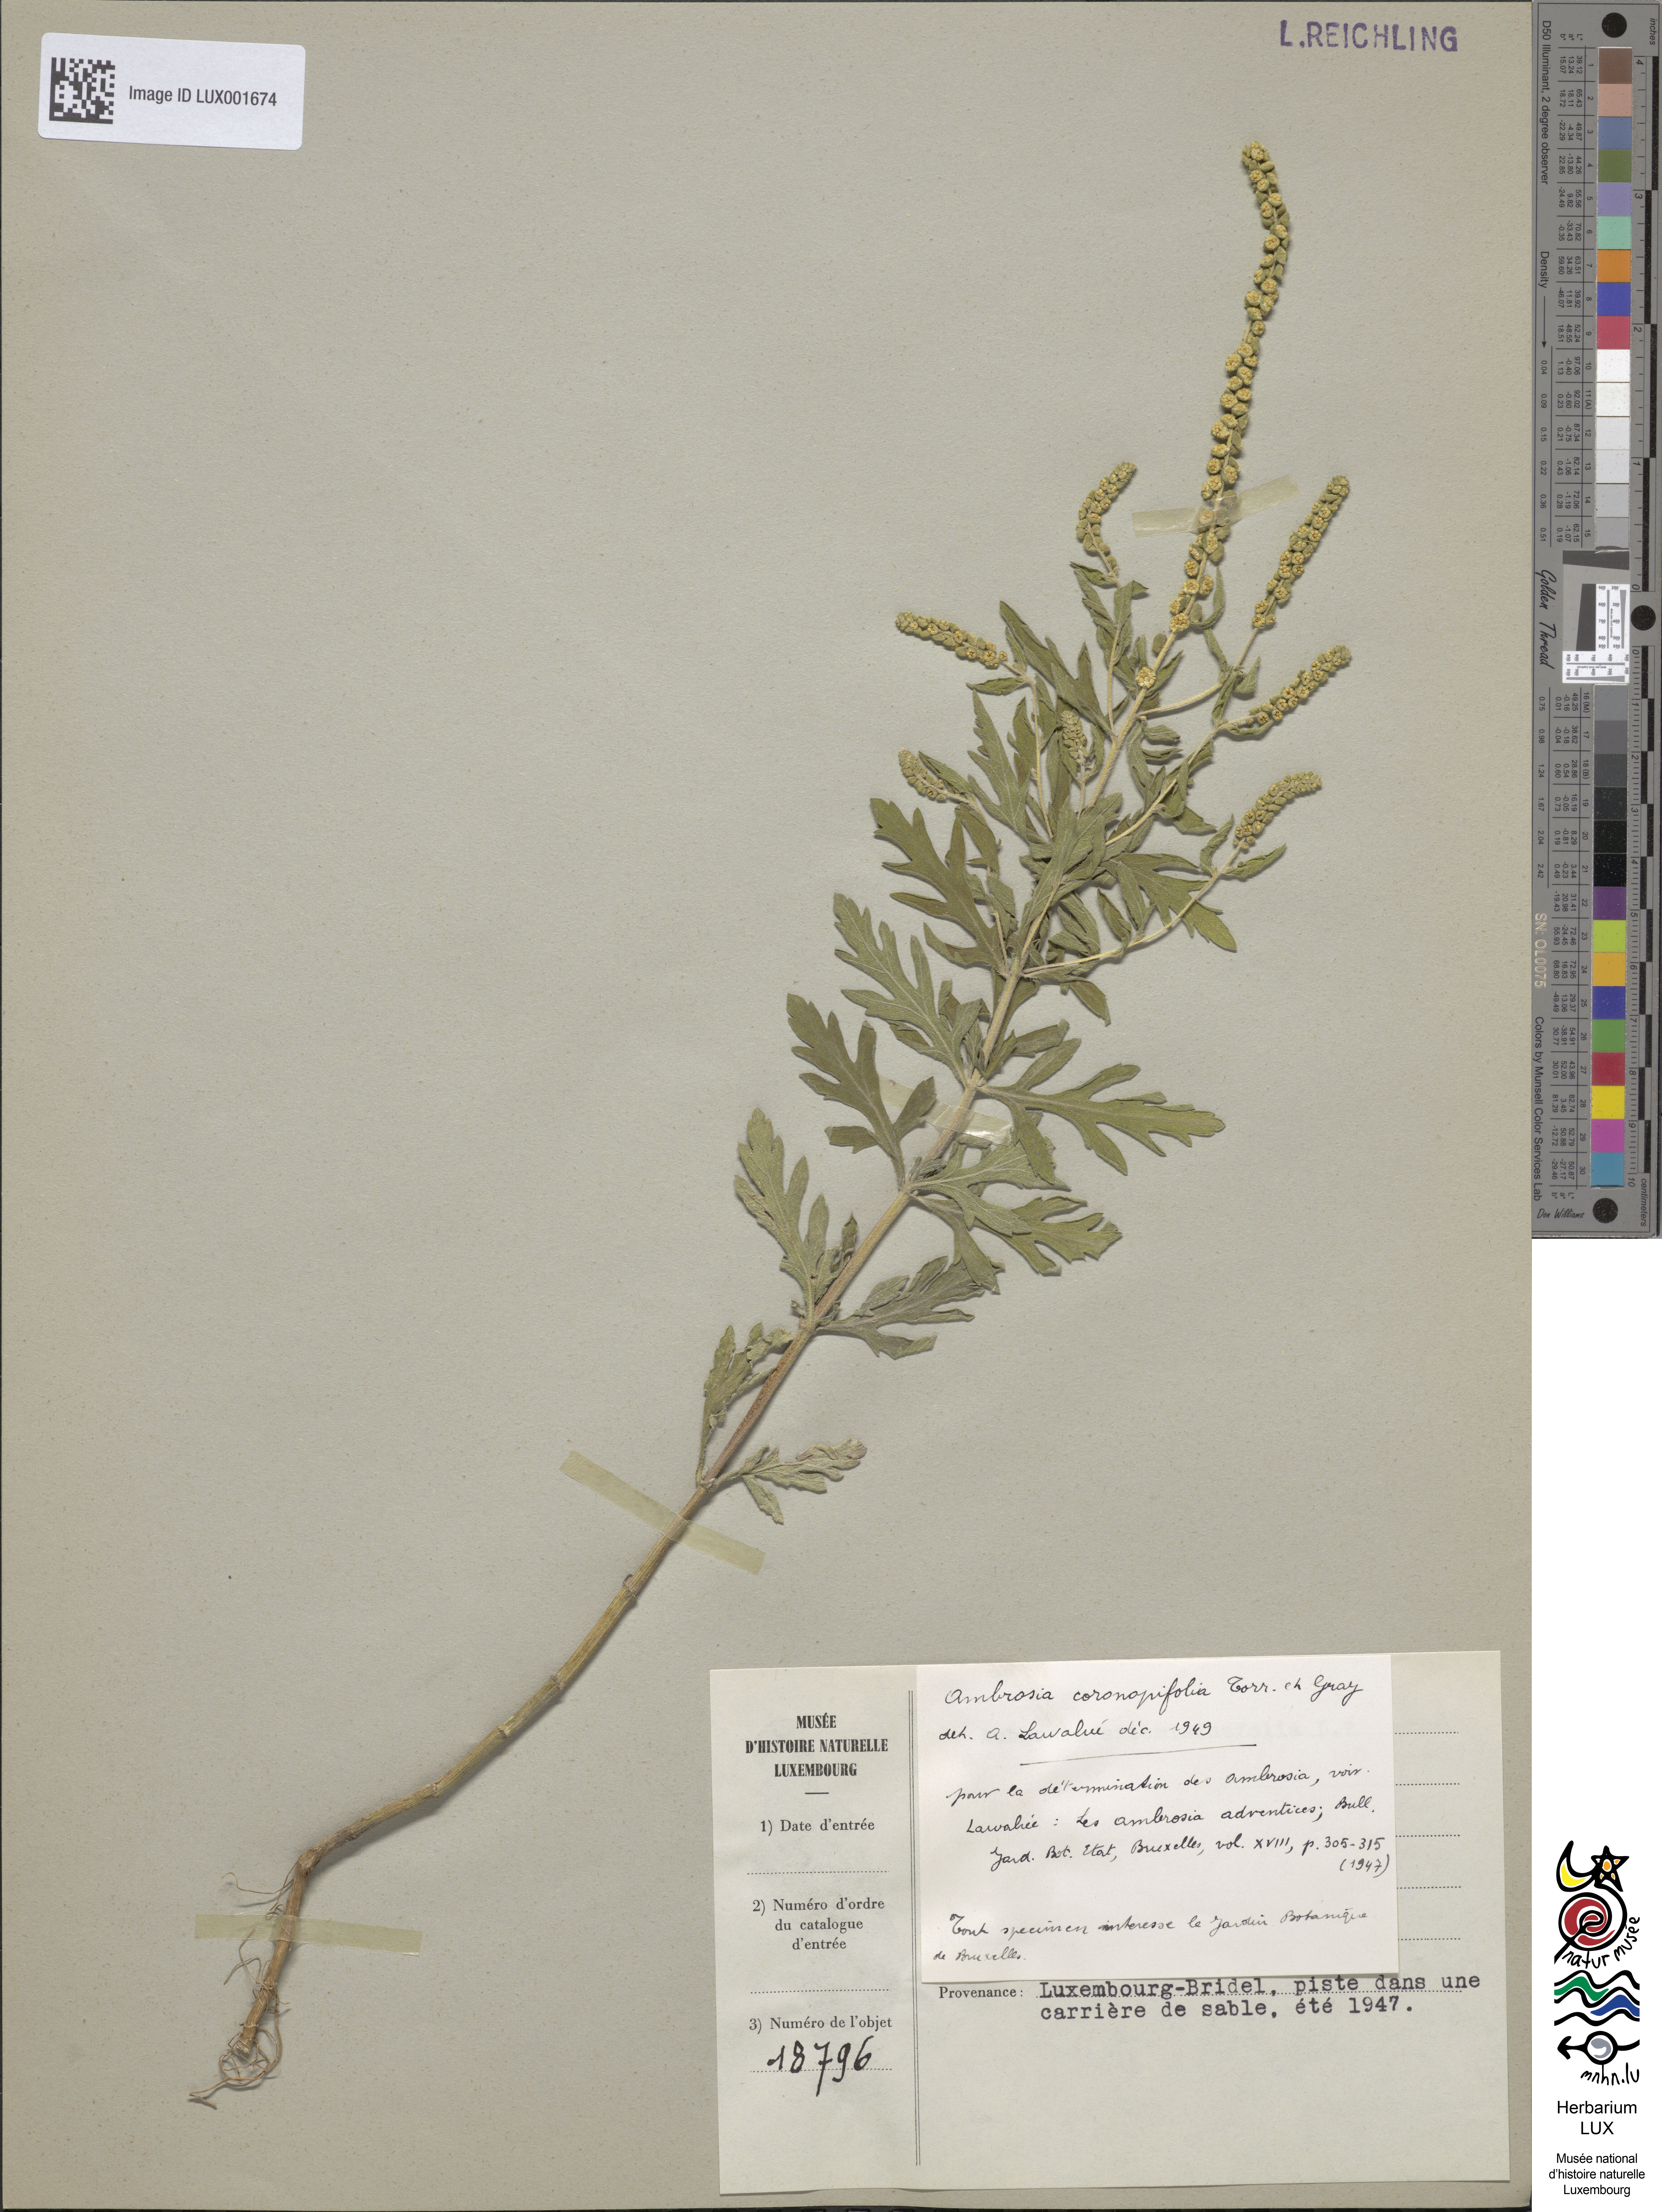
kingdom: Plantae
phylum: Tracheophyta
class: Magnoliopsida
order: Asterales
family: Asteraceae
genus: Ambrosia
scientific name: Ambrosia psilostachya
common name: Perennial ragweed
